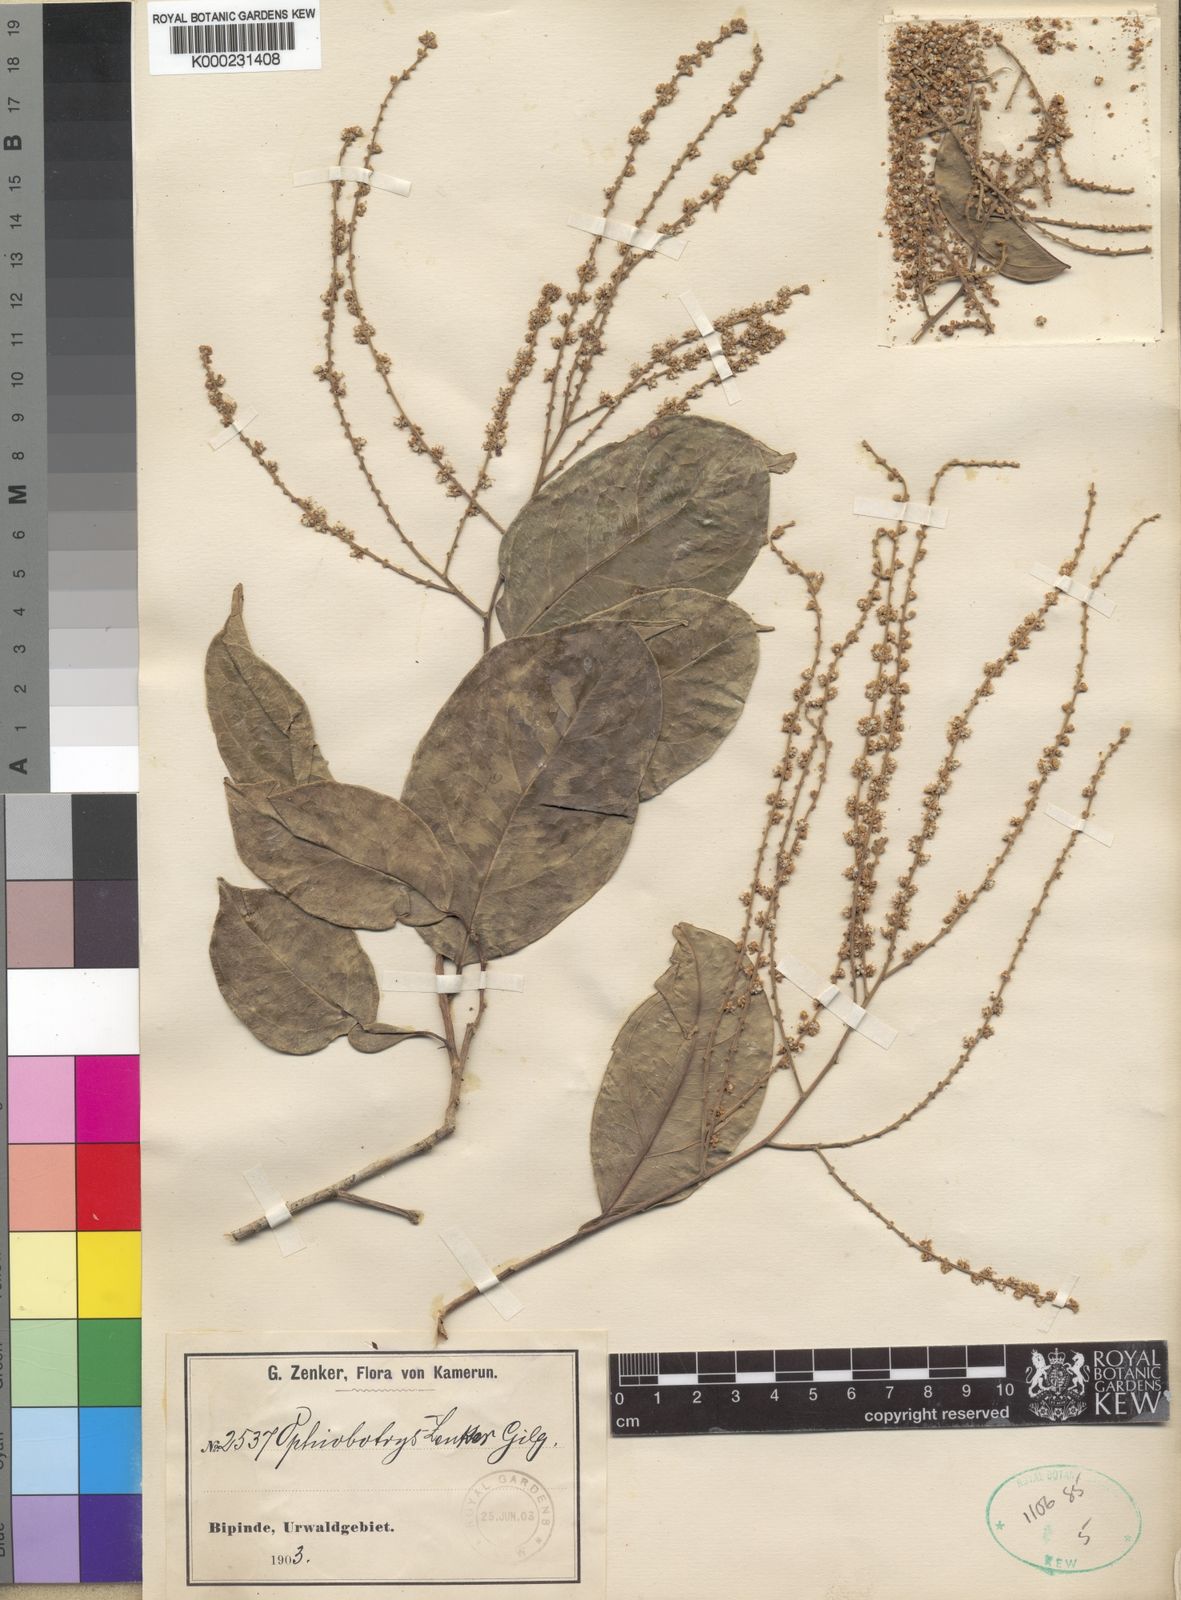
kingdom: Plantae
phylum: Tracheophyta
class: Magnoliopsida
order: Malpighiales
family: Salicaceae
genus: Ophiobotrys
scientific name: Ophiobotrys zenkeri
